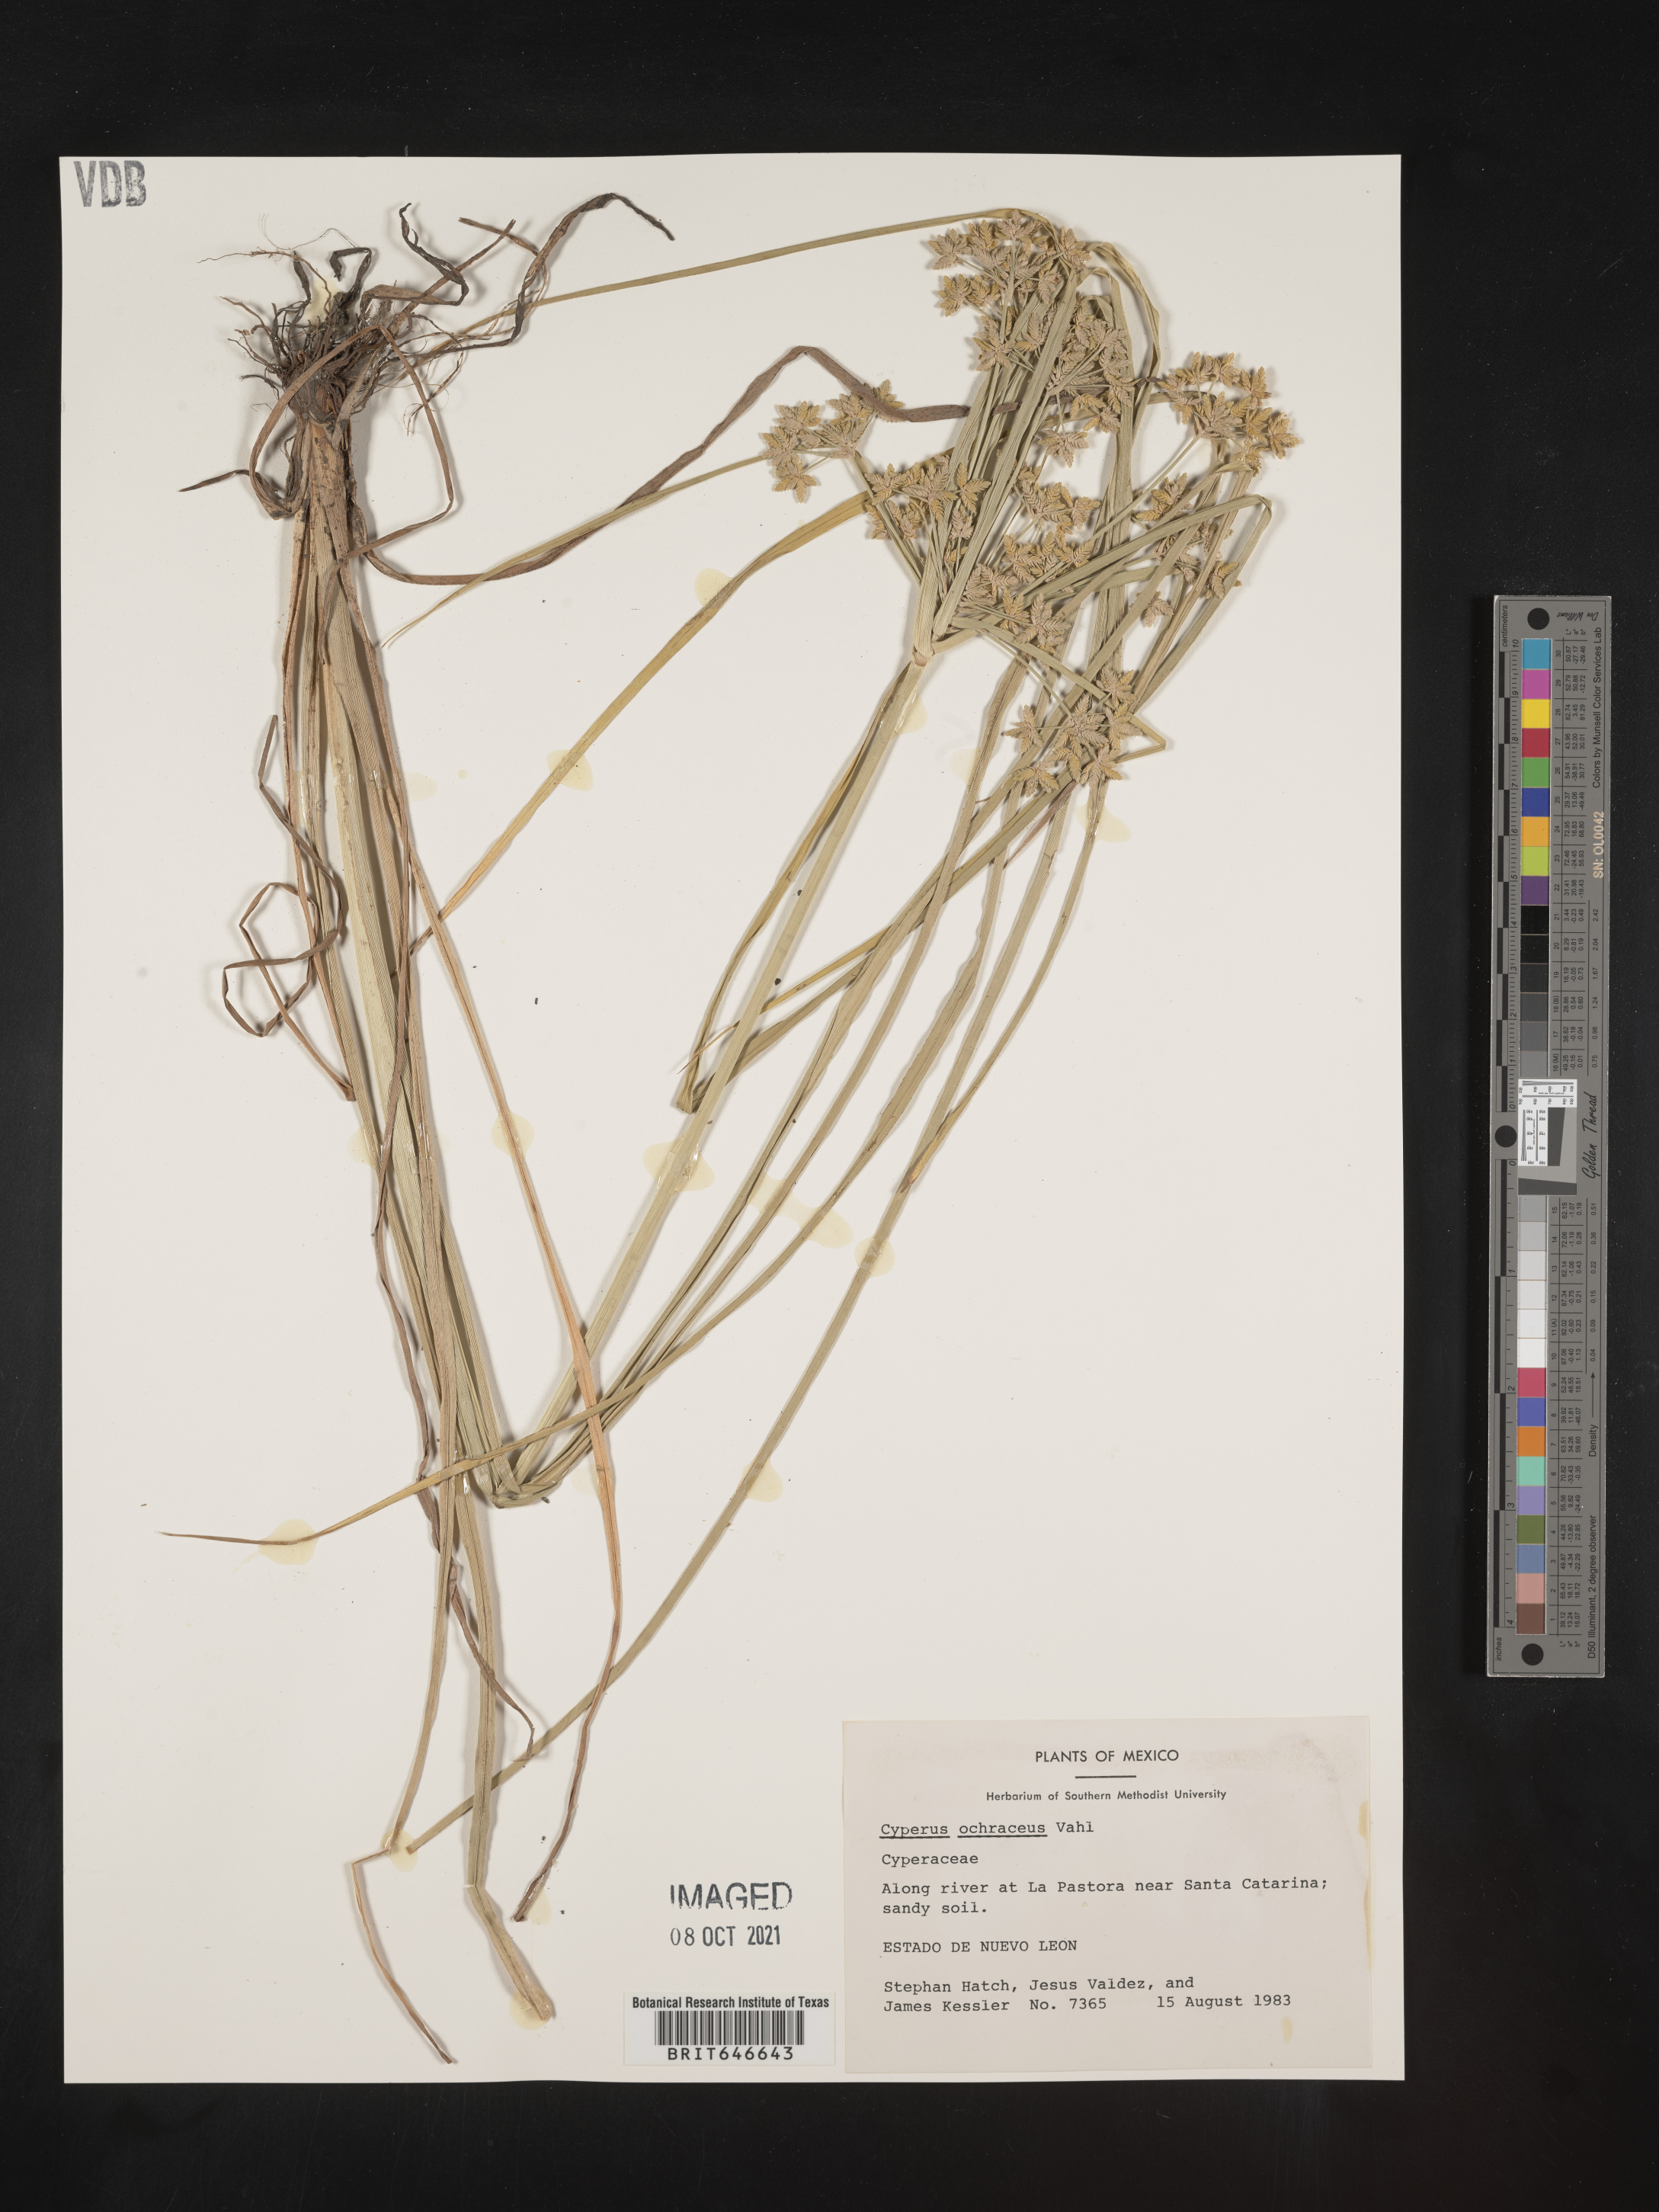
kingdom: Plantae
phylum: Tracheophyta
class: Liliopsida
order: Poales
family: Cyperaceae
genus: Cyperus
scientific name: Cyperus
